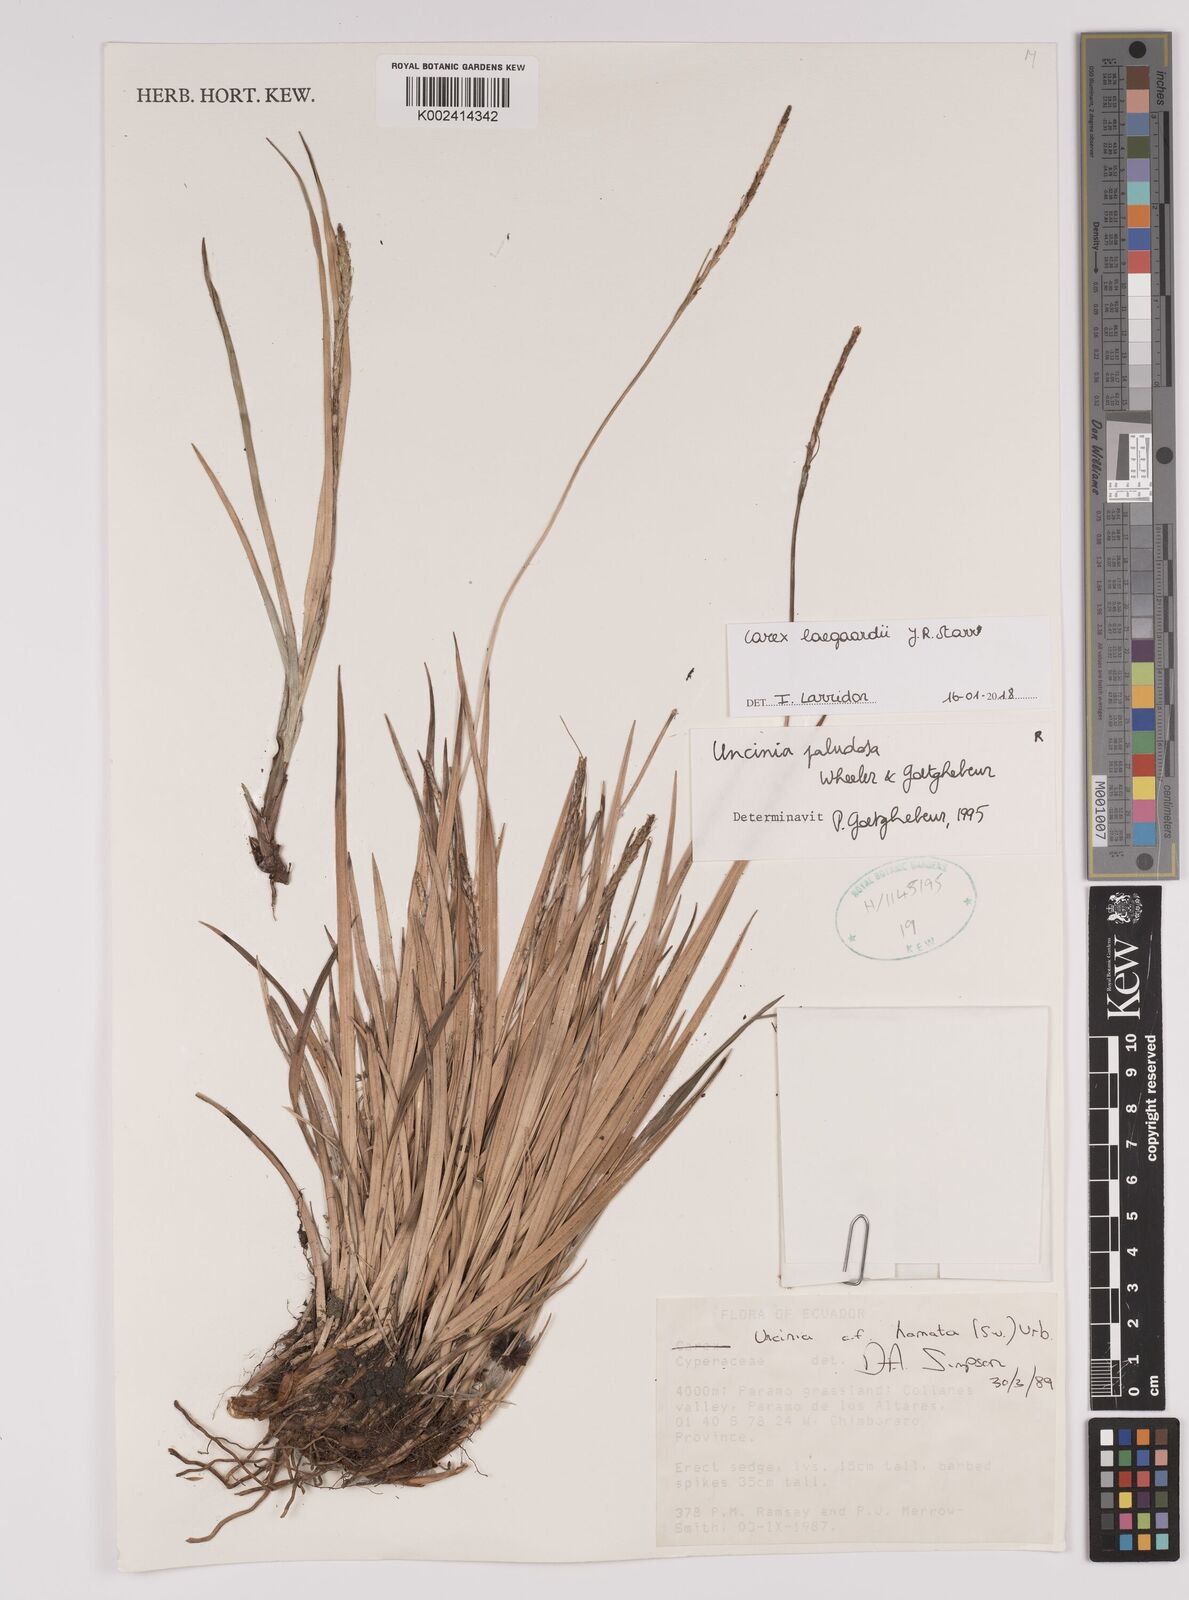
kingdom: Plantae
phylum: Tracheophyta
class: Liliopsida
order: Poales
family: Cyperaceae
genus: Carex
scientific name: Carex laegaardii
